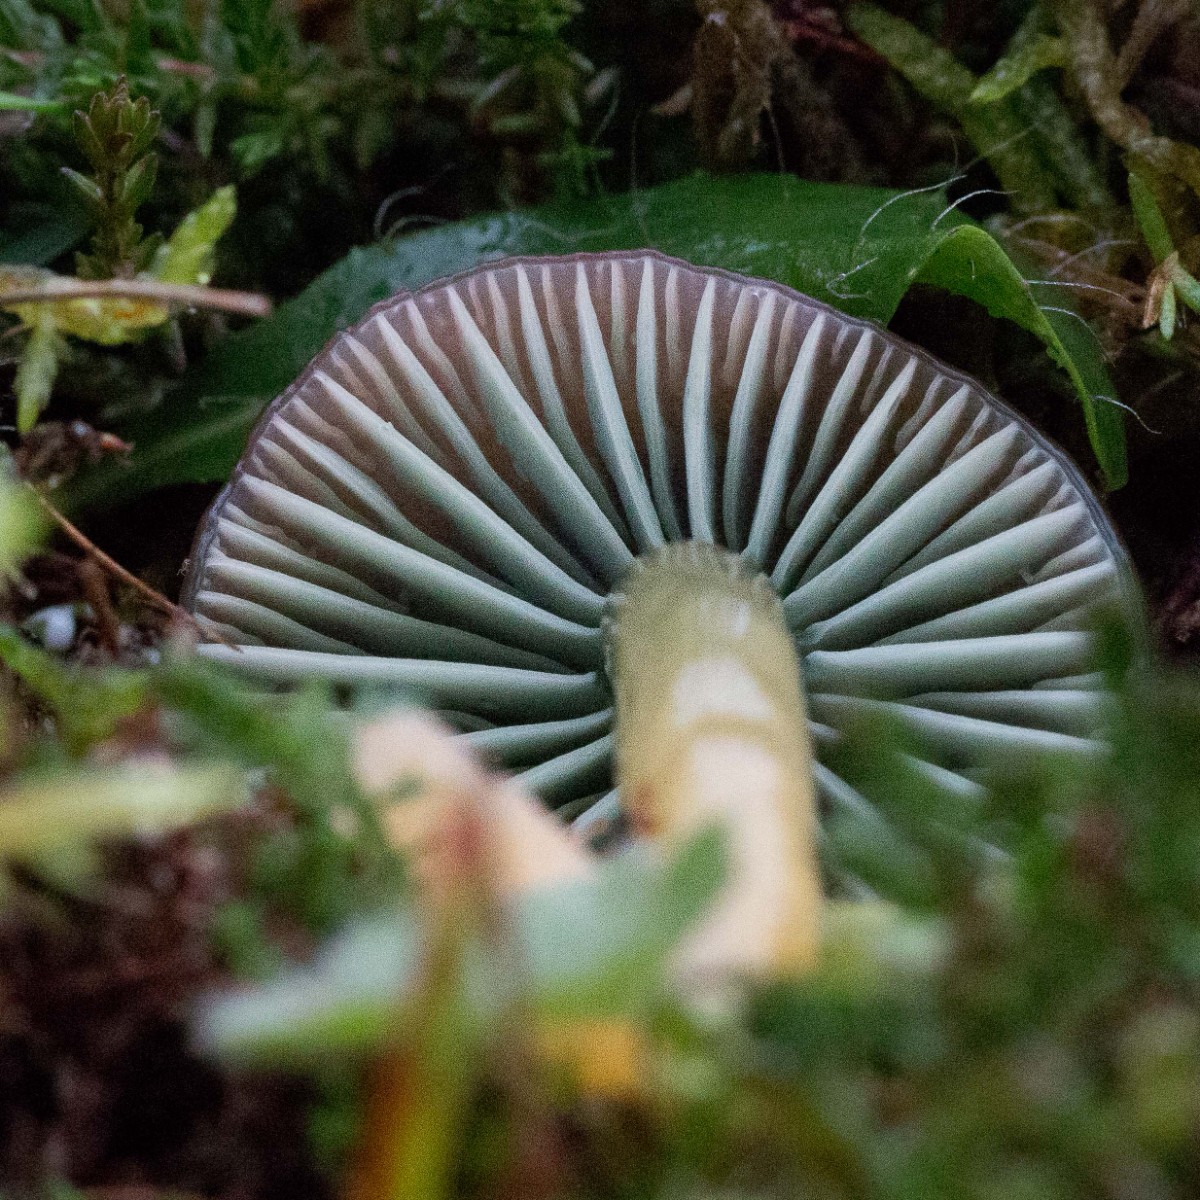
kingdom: Fungi
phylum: Basidiomycota
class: Agaricomycetes
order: Agaricales
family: Hygrophoraceae
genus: Gliophorus
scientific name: Gliophorus psittacinus
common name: papegøje-vokshat
